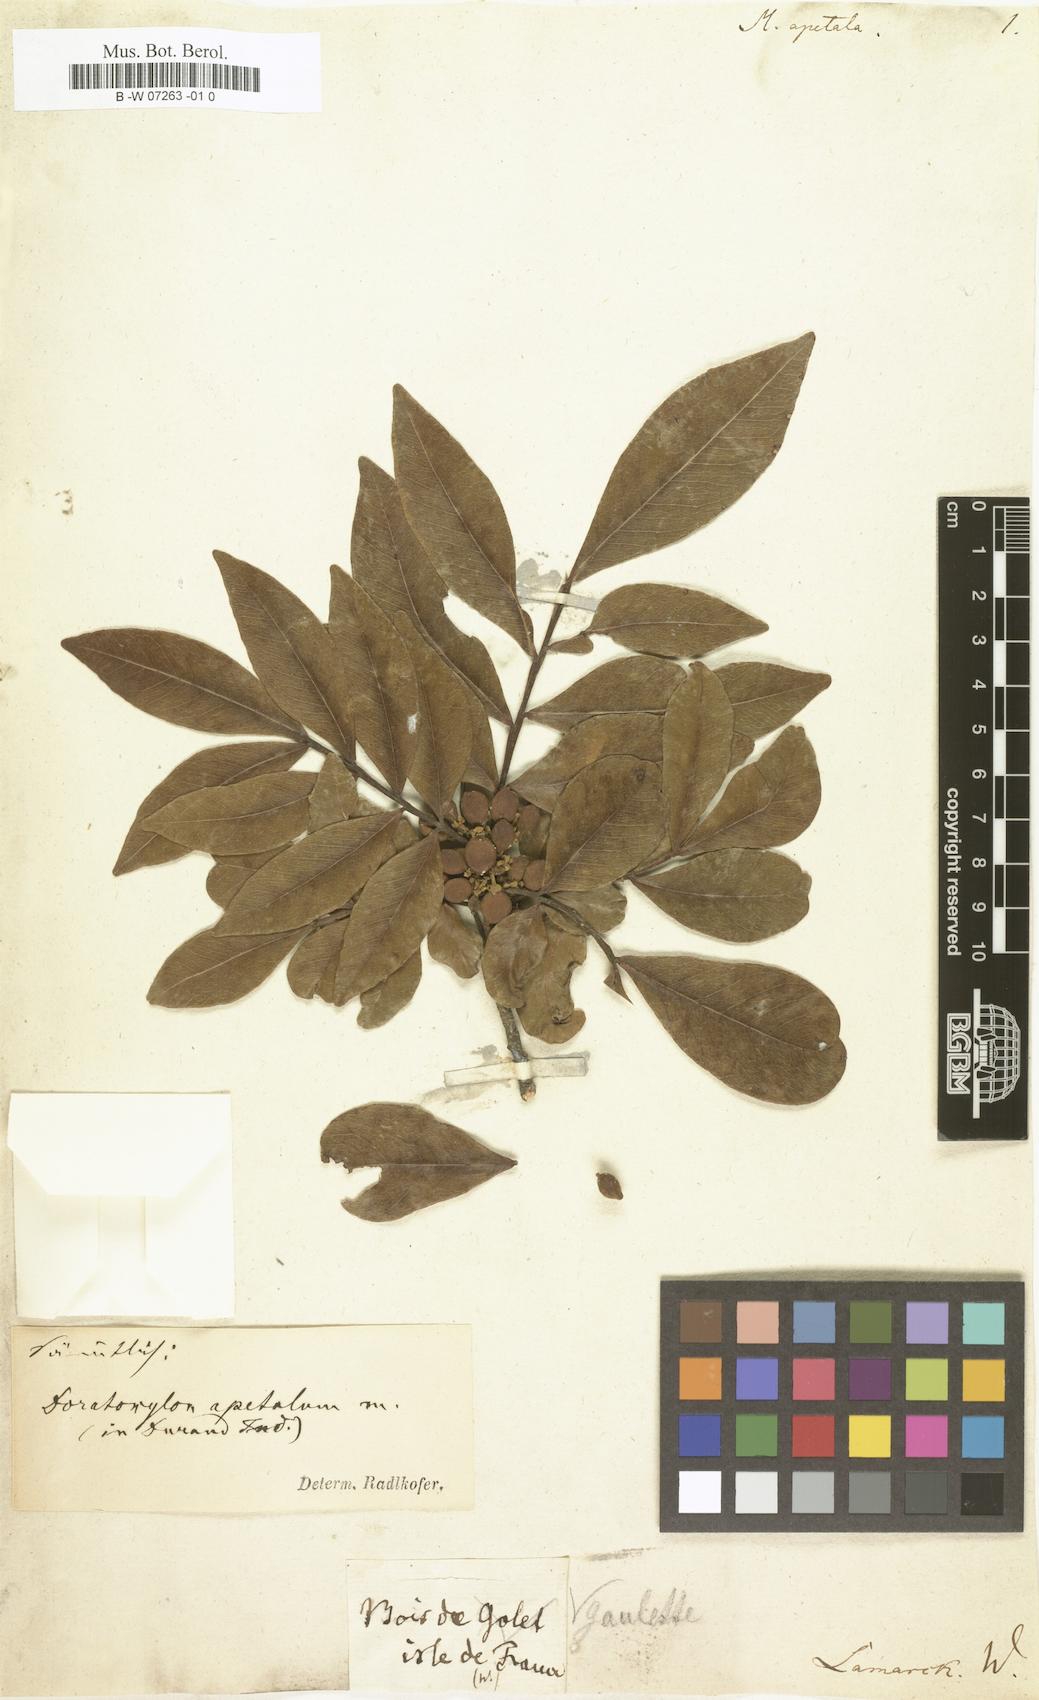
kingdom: Plantae
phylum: Tracheophyta
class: Magnoliopsida
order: Sapindales
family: Sapindaceae
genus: Doratoxylon
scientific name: Doratoxylon apetalum
